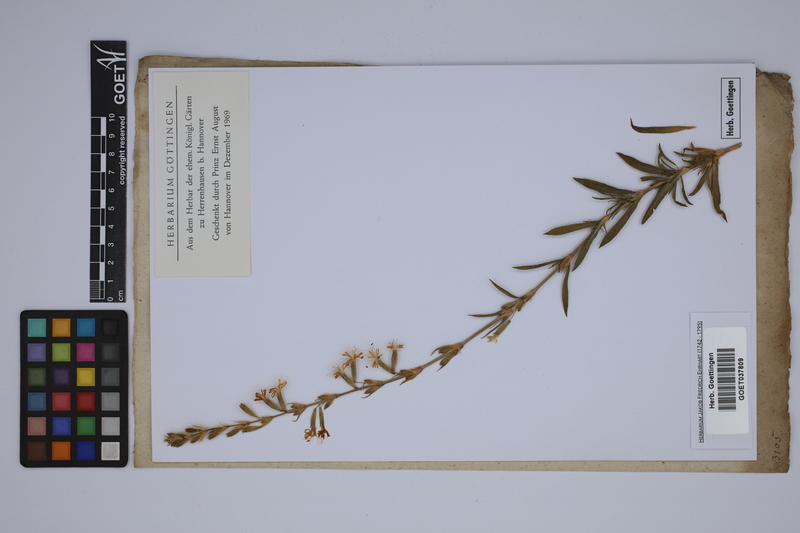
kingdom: Plantae
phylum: Tracheophyta
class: Magnoliopsida
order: Caryophyllales
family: Caryophyllaceae
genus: Silene
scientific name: Silene tatarica
